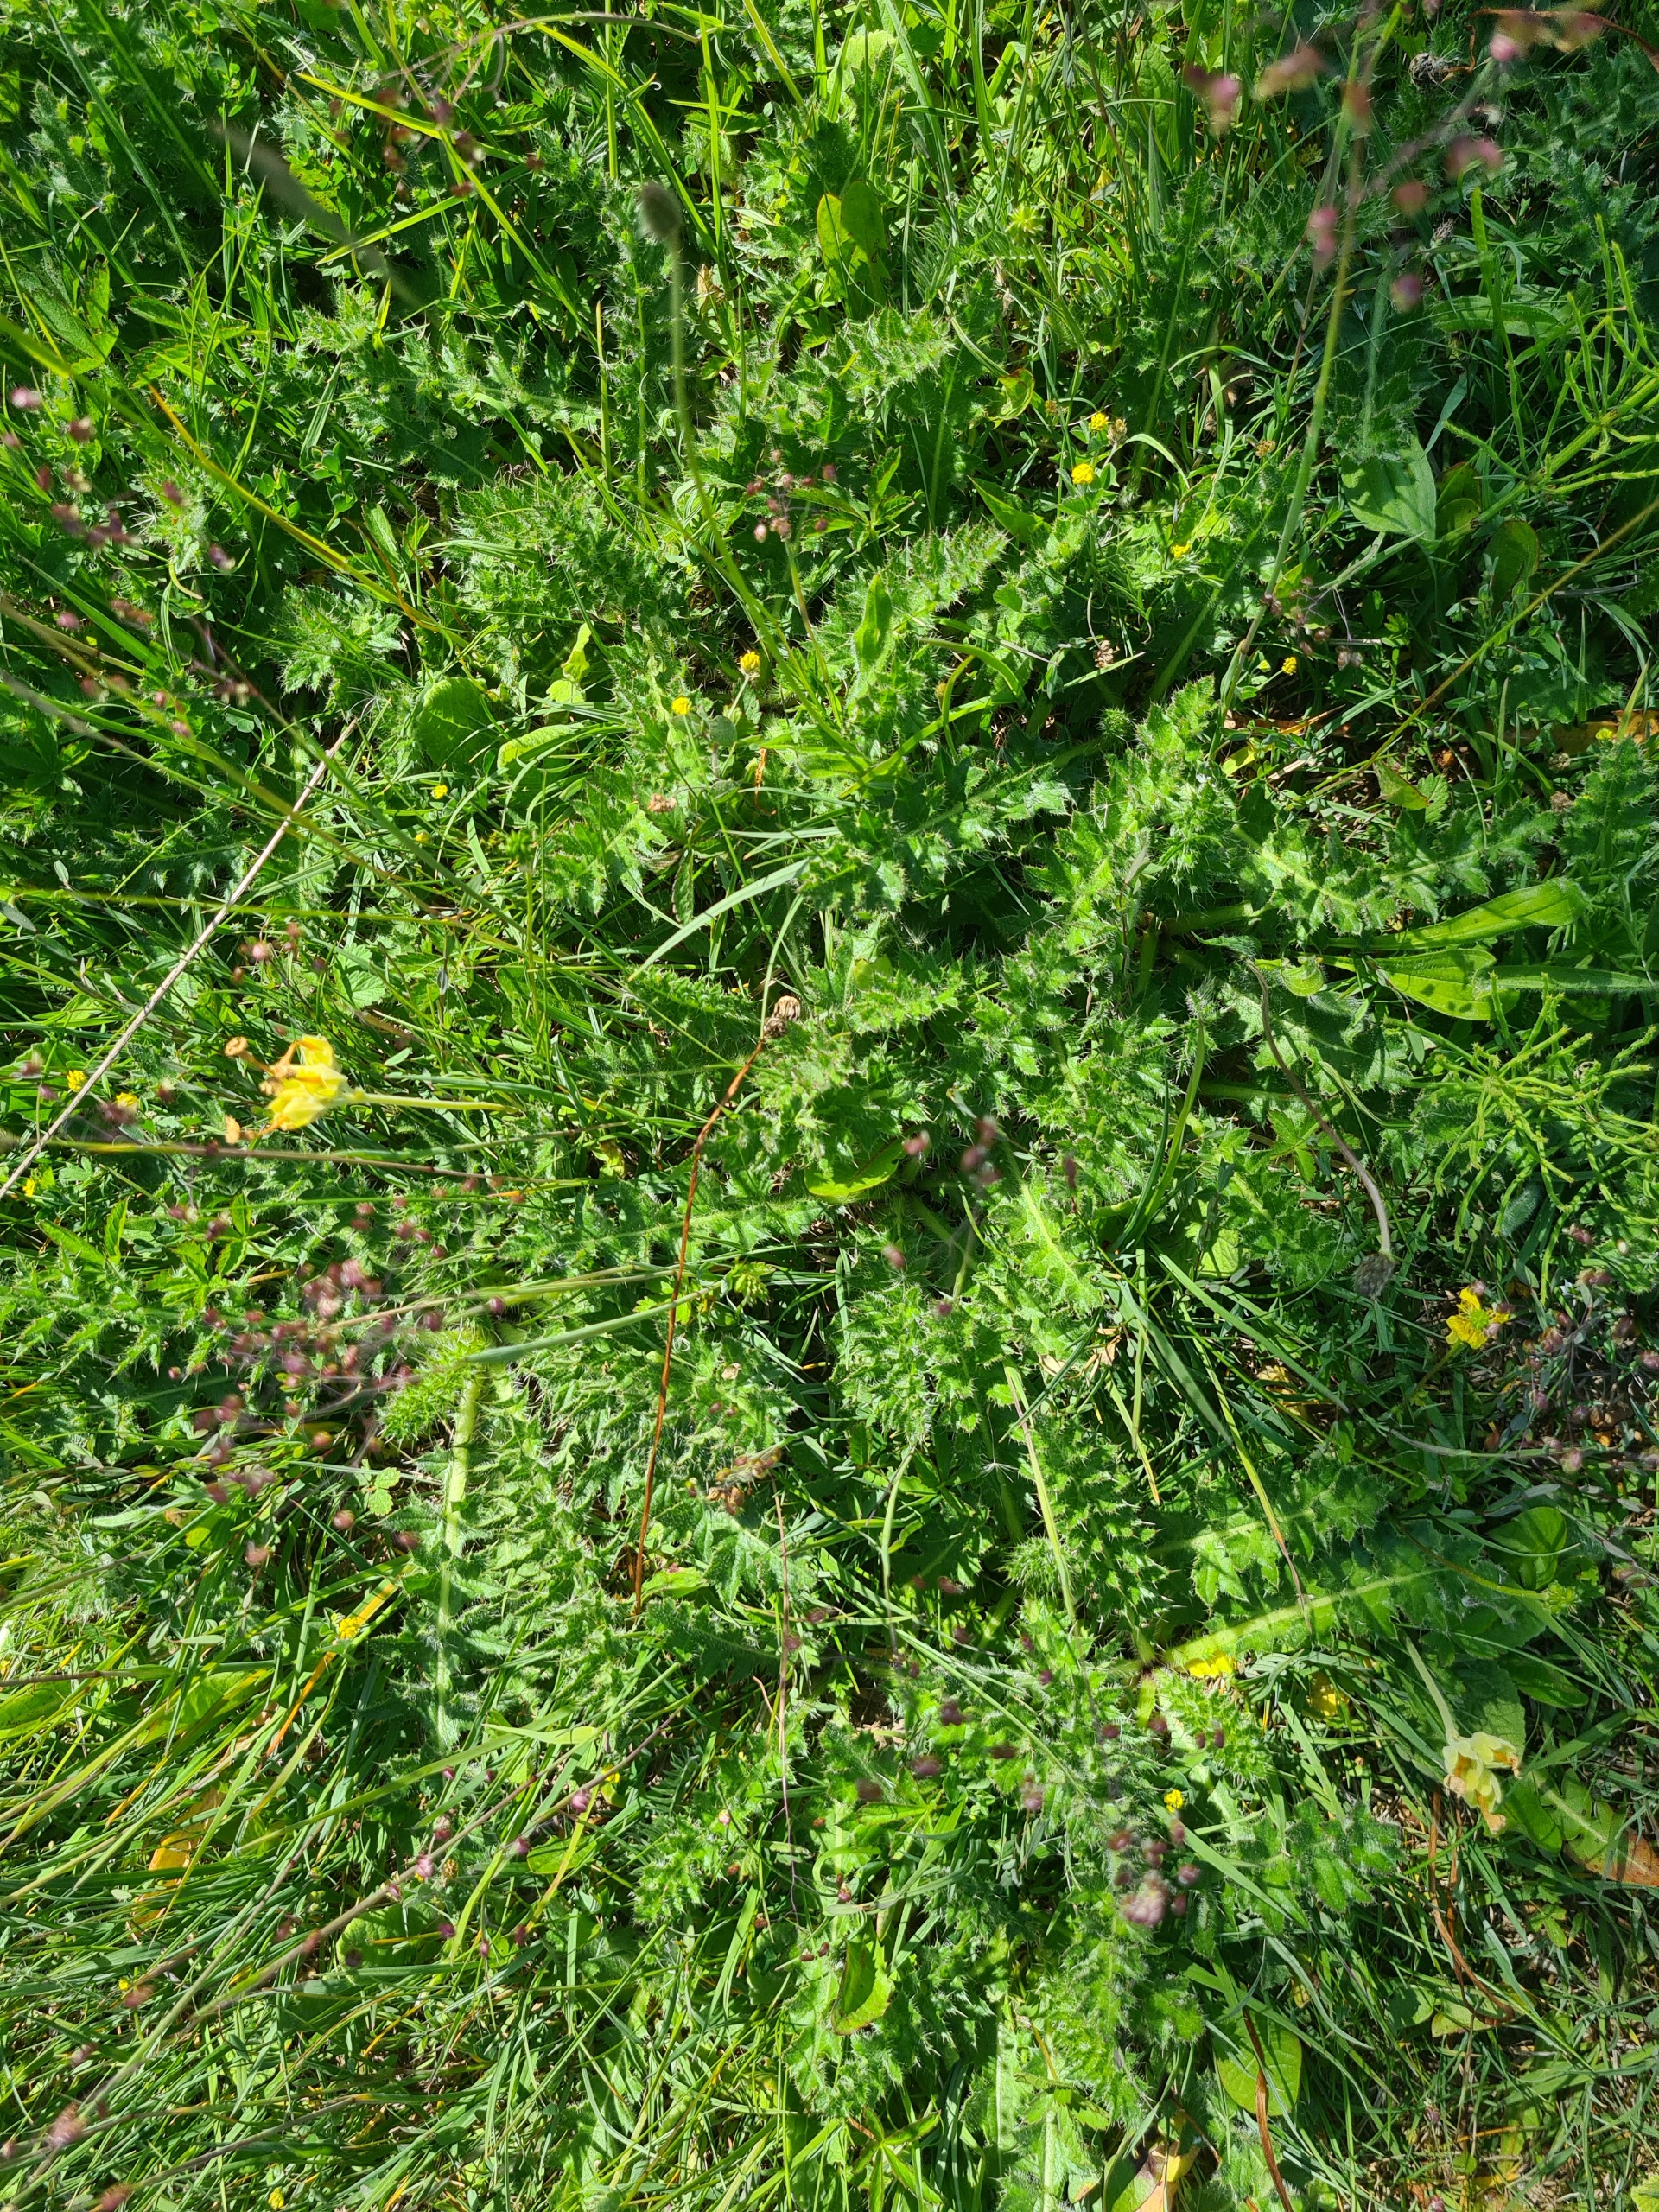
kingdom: Plantae
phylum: Tracheophyta
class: Magnoliopsida
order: Asterales
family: Asteraceae
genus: Cirsium
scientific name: Cirsium acaule
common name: Lav tidsel
